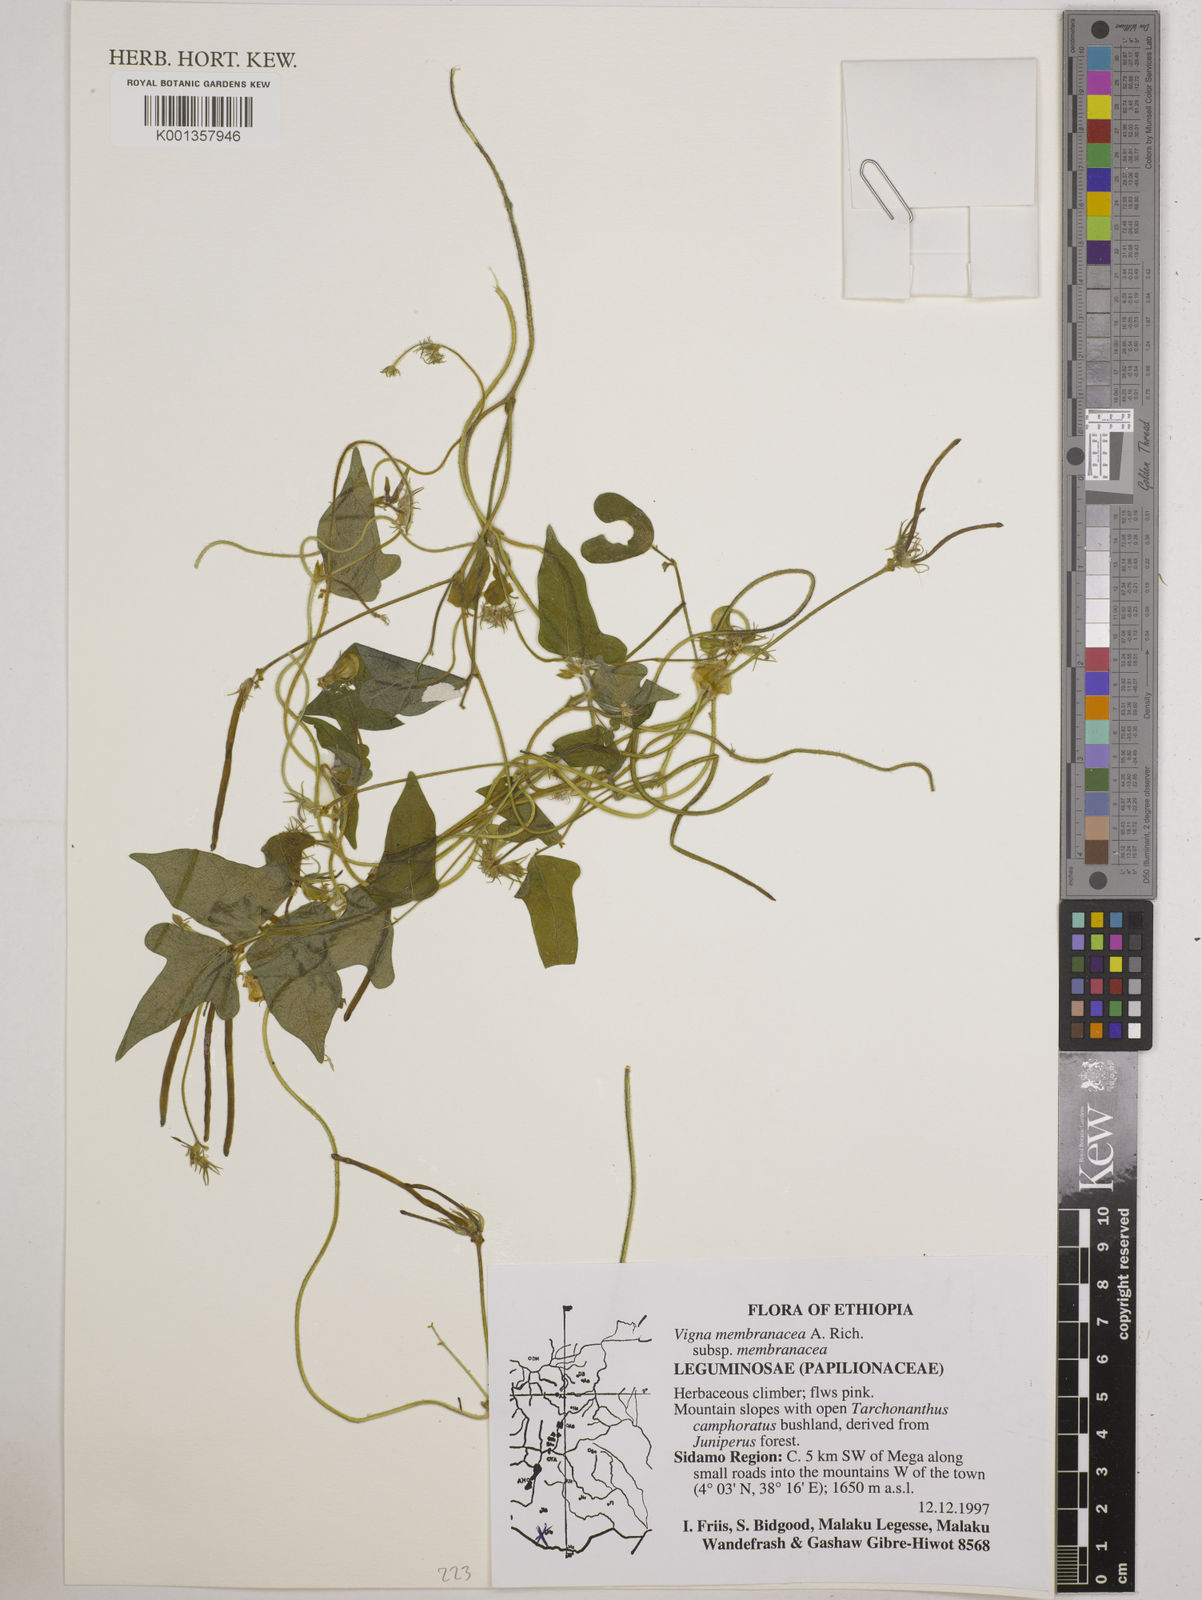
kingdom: Plantae
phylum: Tracheophyta
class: Magnoliopsida
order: Fabales
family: Fabaceae
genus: Vigna
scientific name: Vigna membranacea
